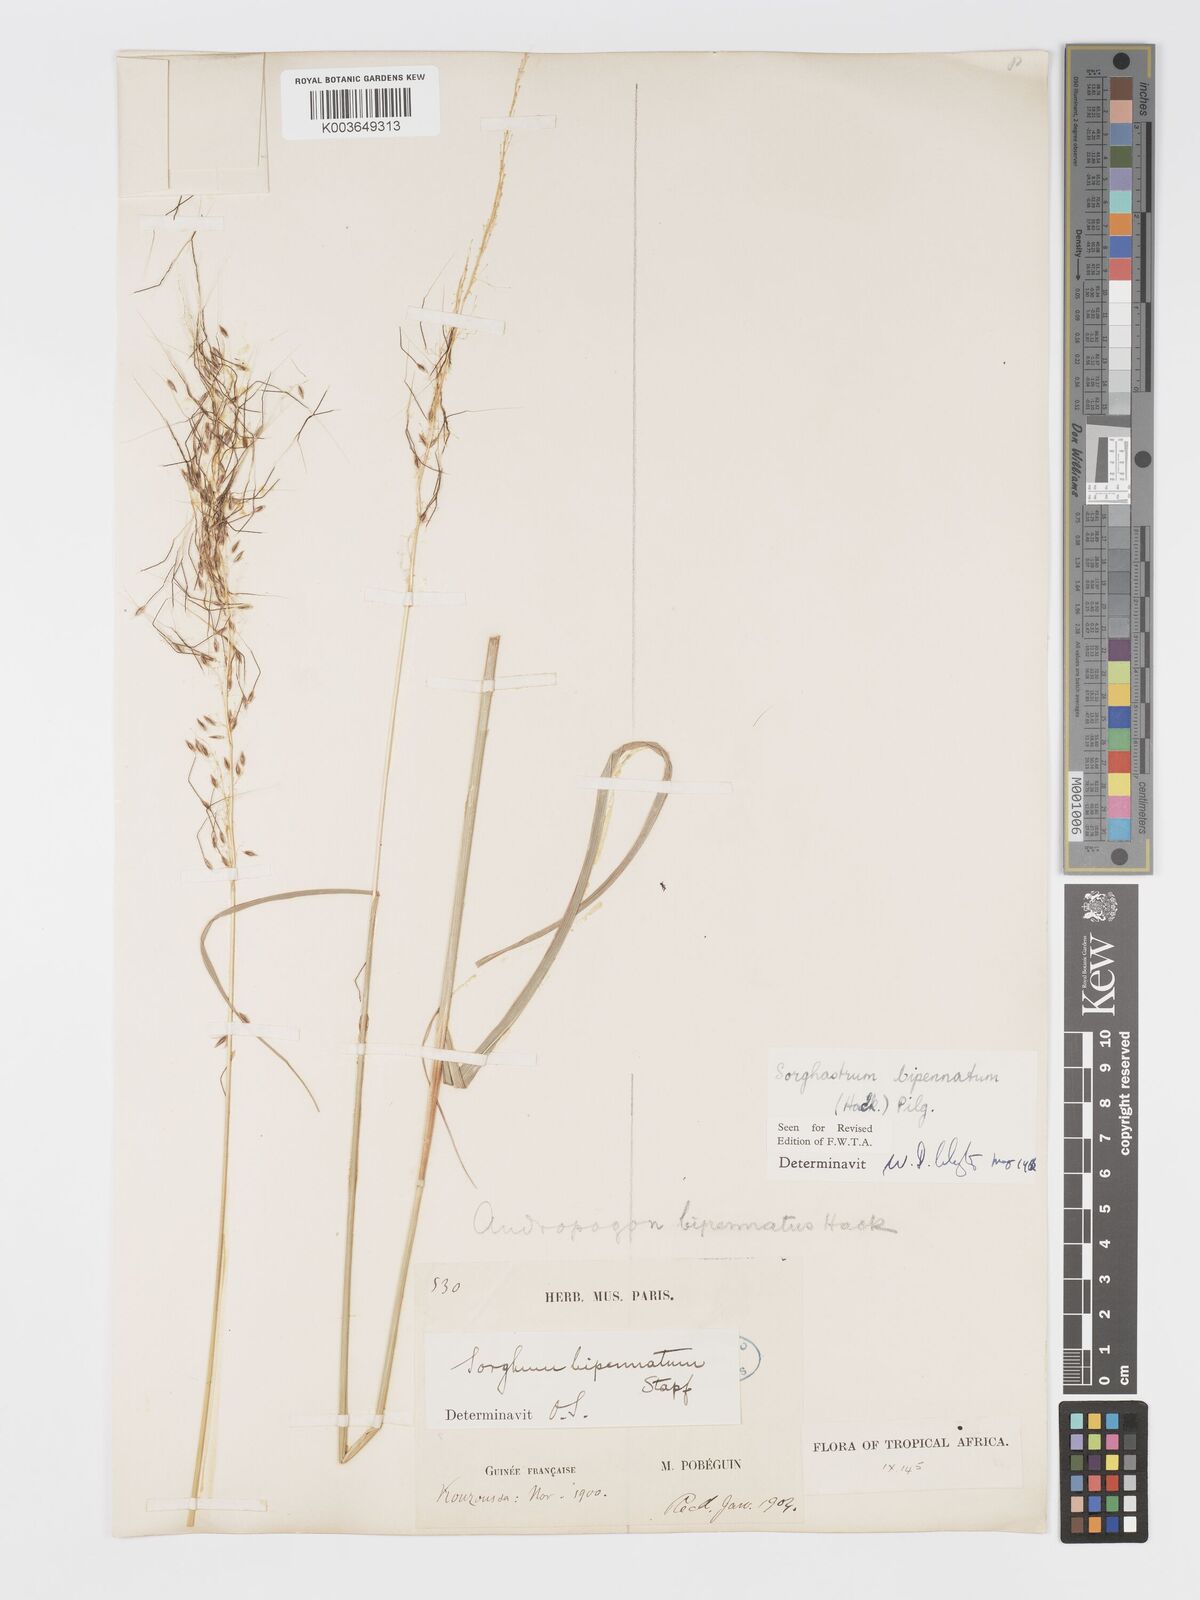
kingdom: Plantae
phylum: Tracheophyta
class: Liliopsida
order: Poales
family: Poaceae
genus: Sorghastrum
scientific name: Sorghastrum incompletum
